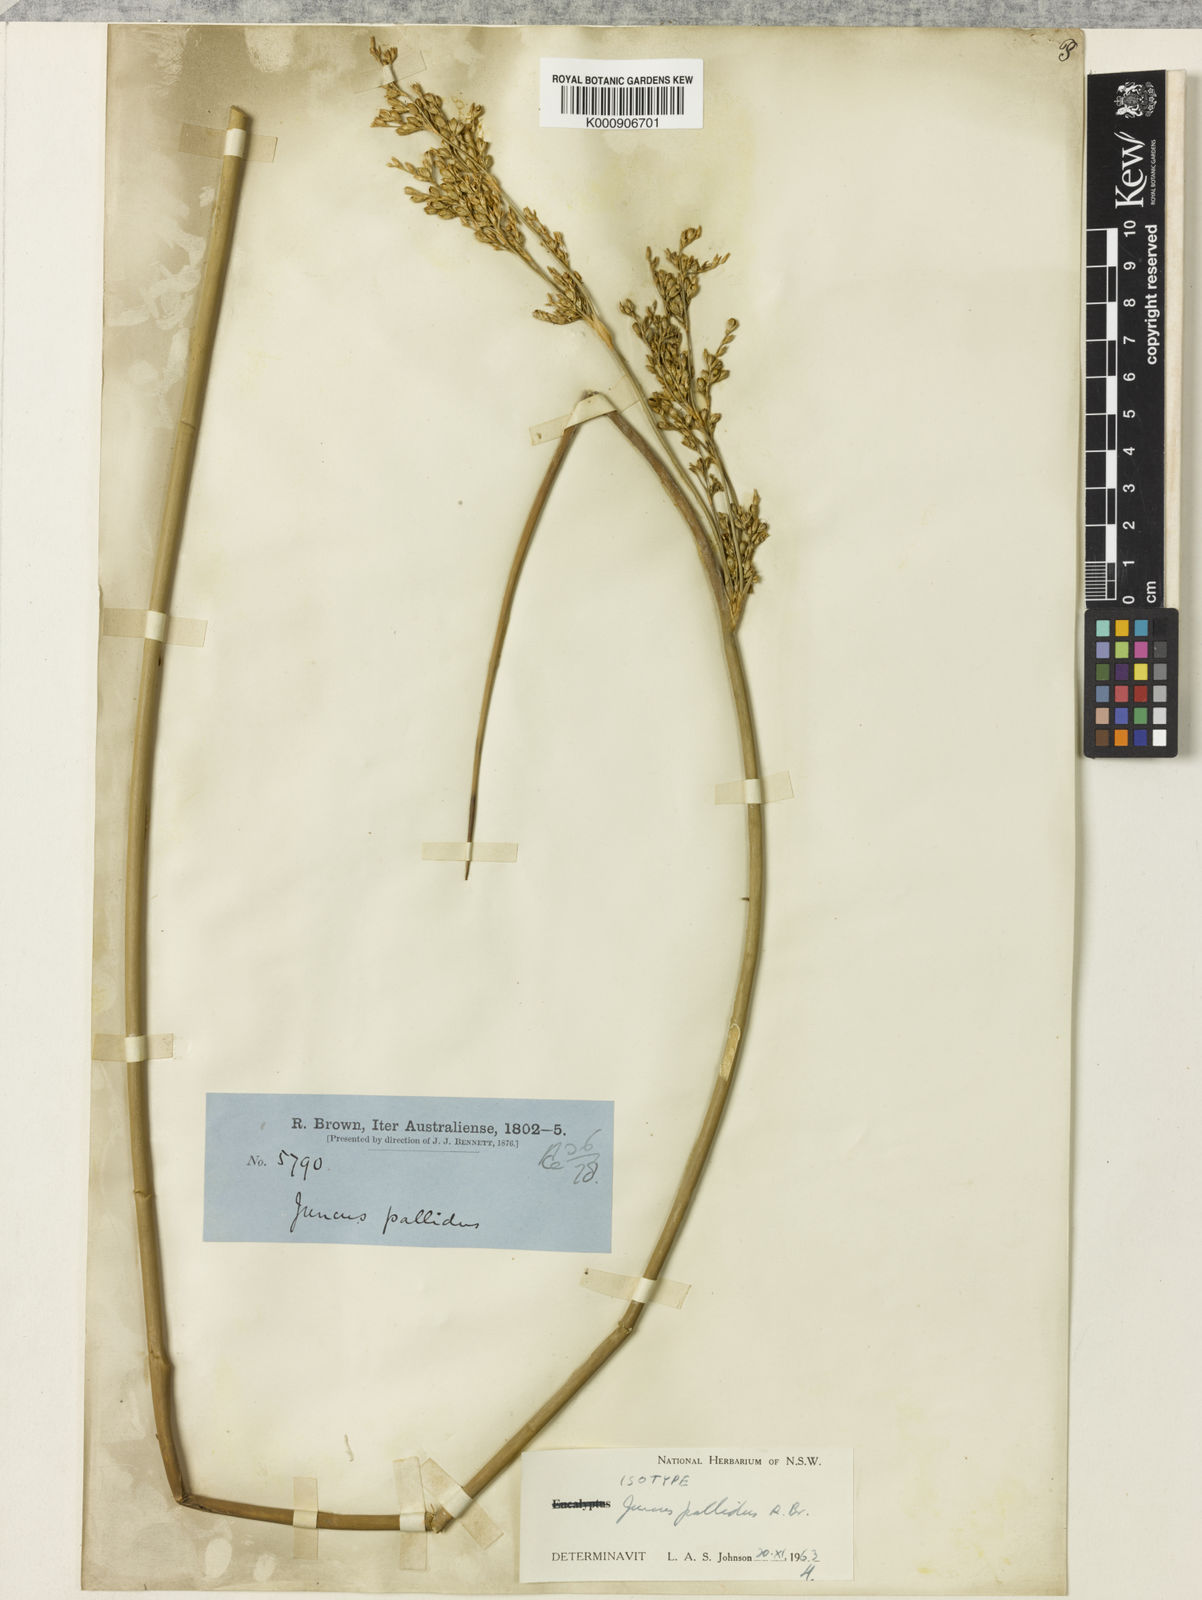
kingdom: Plantae
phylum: Tracheophyta
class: Liliopsida
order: Poales
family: Juncaceae
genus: Juncus
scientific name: Juncus pallidus
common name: Great soft-rush
